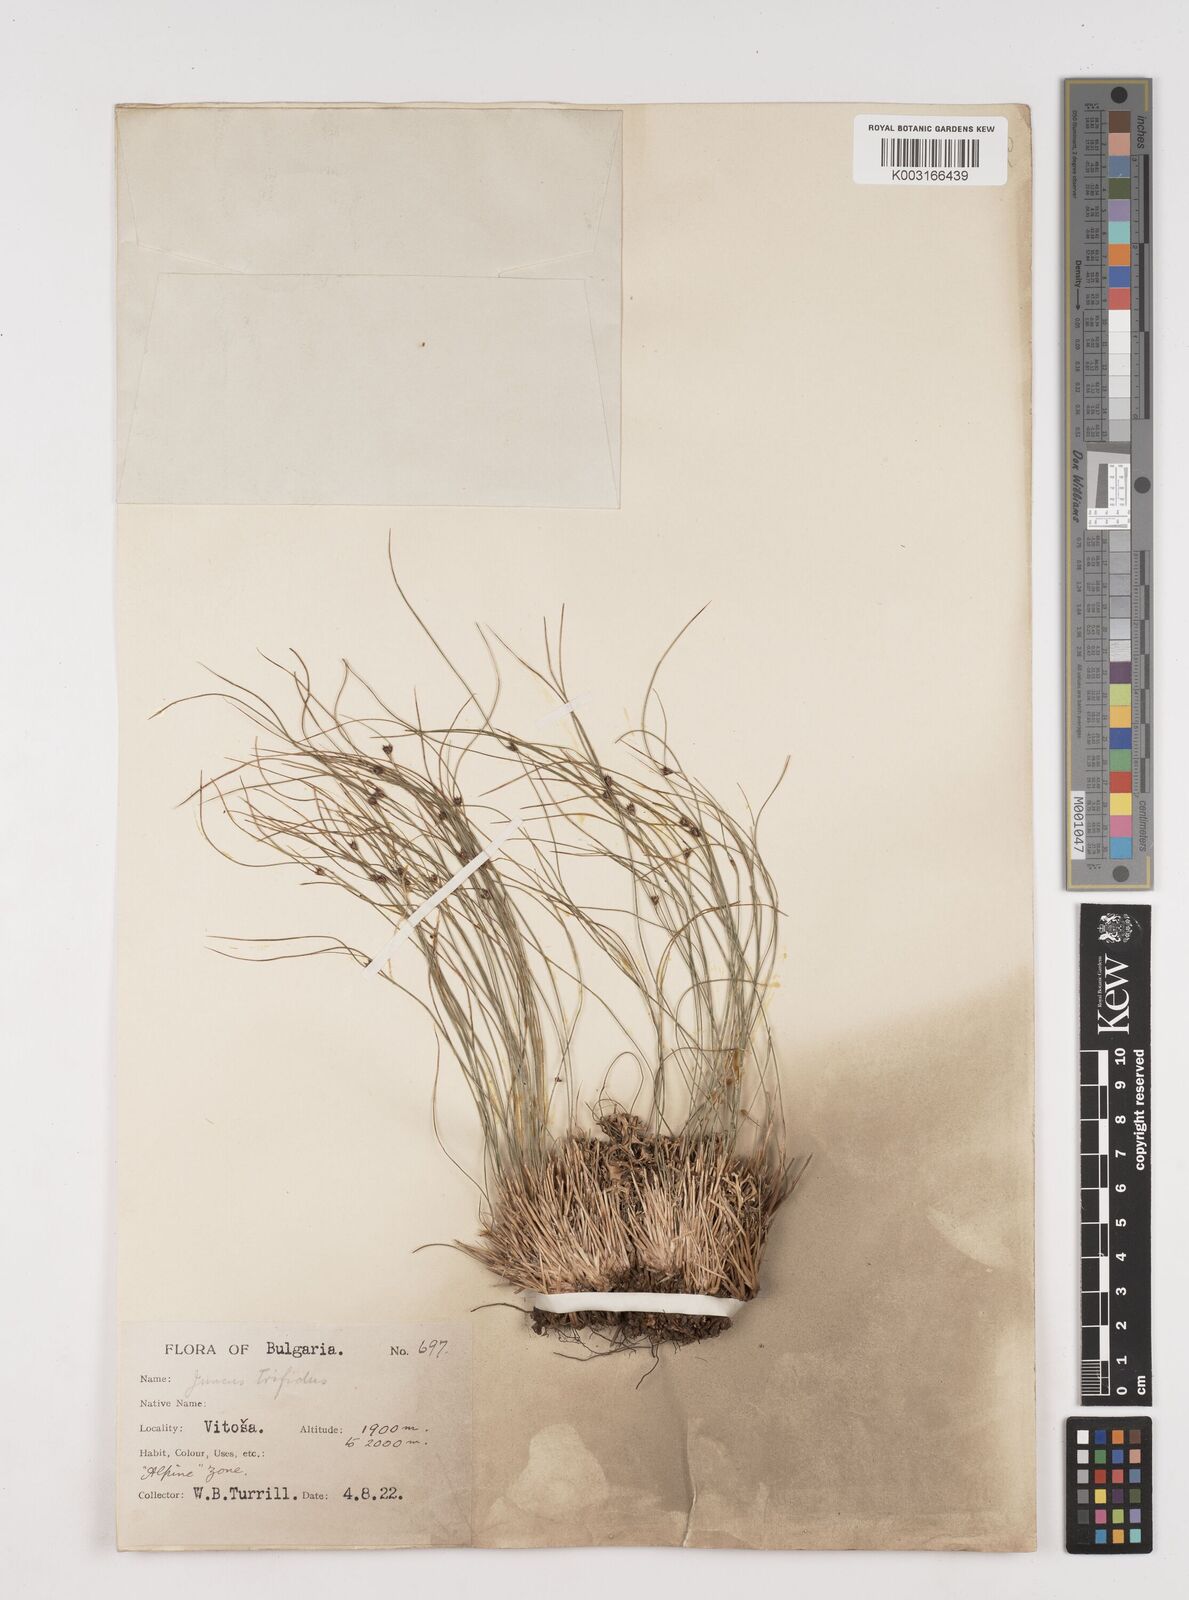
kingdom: Plantae
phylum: Tracheophyta
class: Liliopsida
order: Poales
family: Juncaceae
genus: Oreojuncus
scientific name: Oreojuncus trifidus
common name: Highland rush
